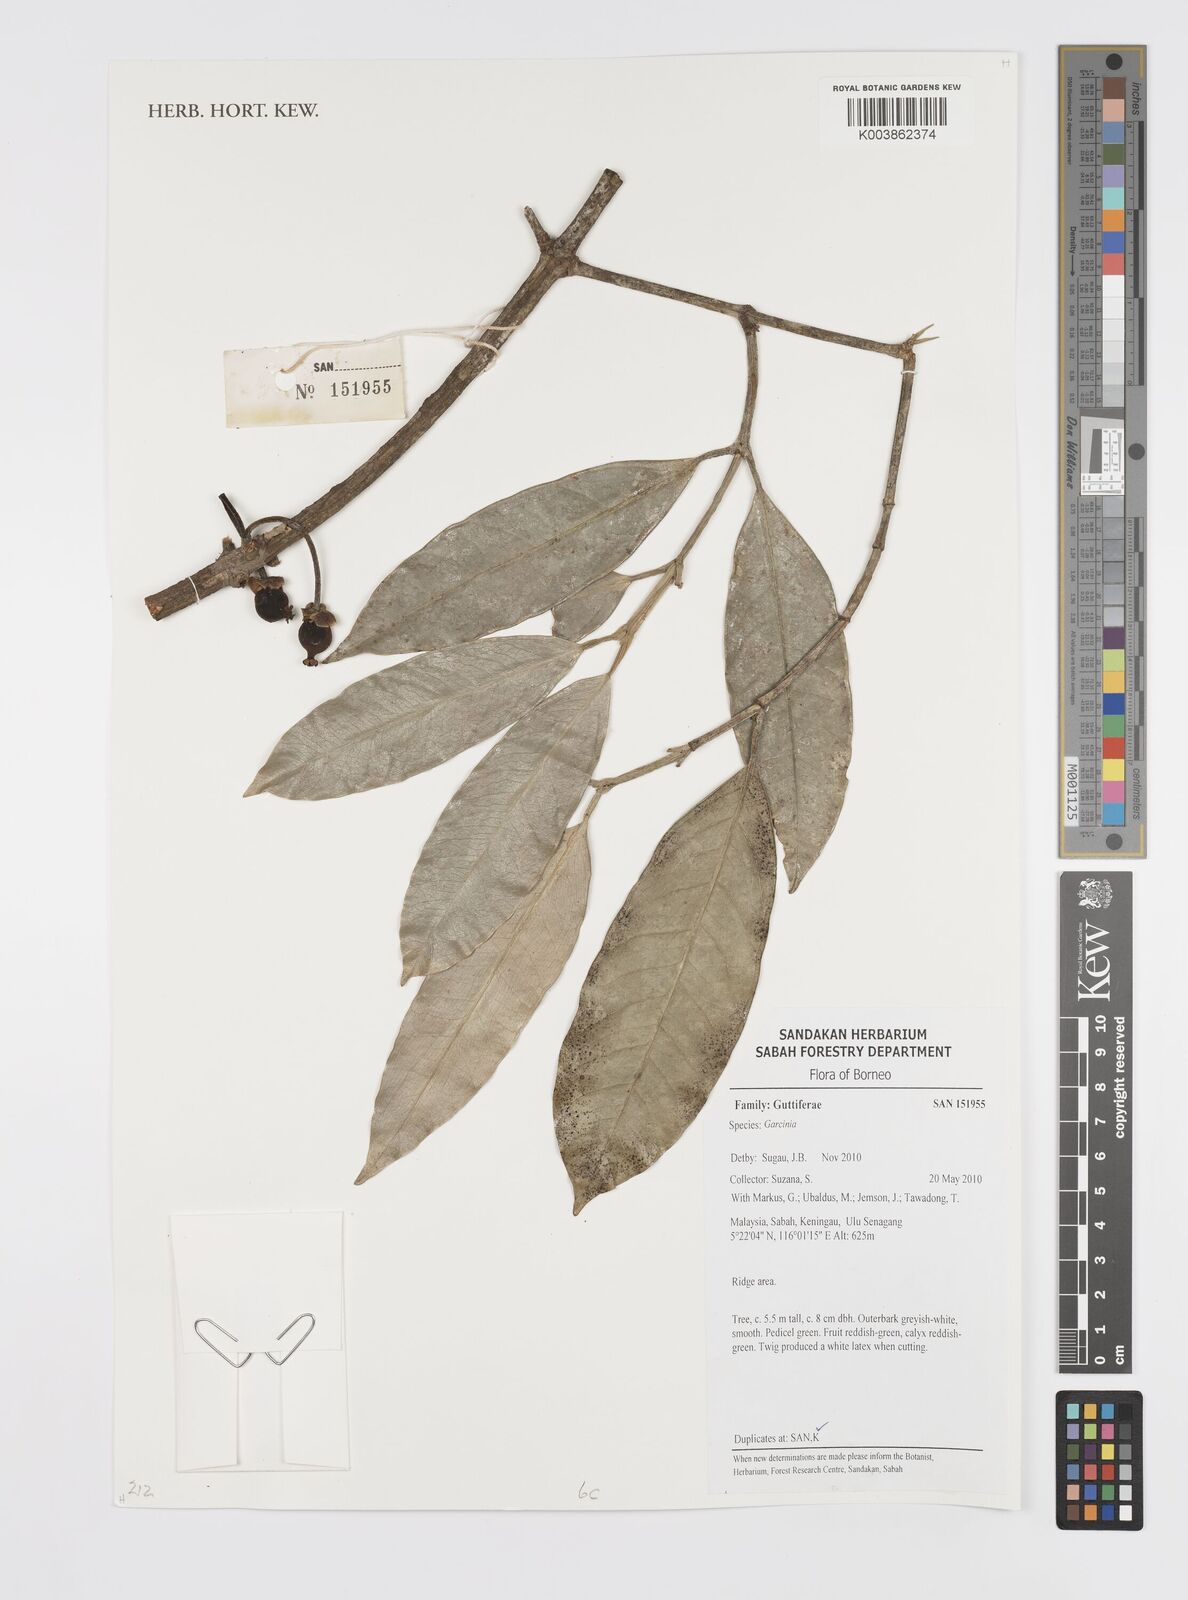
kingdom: Plantae
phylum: Tracheophyta
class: Magnoliopsida
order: Malpighiales
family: Clusiaceae
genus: Garcinia
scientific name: Garcinia
